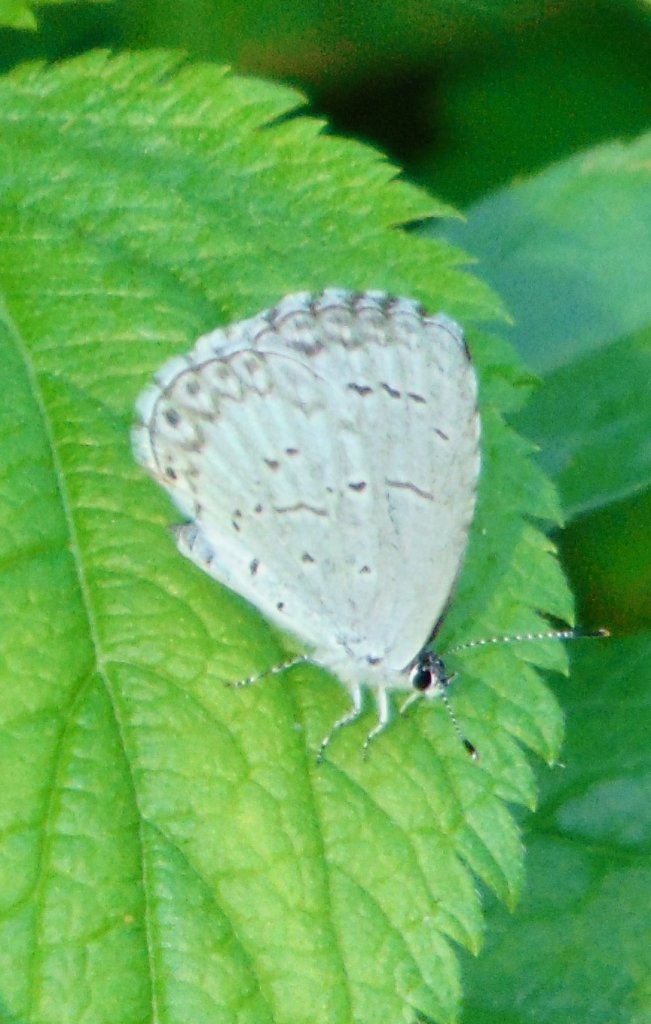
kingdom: Animalia
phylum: Arthropoda
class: Insecta
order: Lepidoptera
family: Lycaenidae
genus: Cyaniris
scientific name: Cyaniris neglecta
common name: Summer Azure
